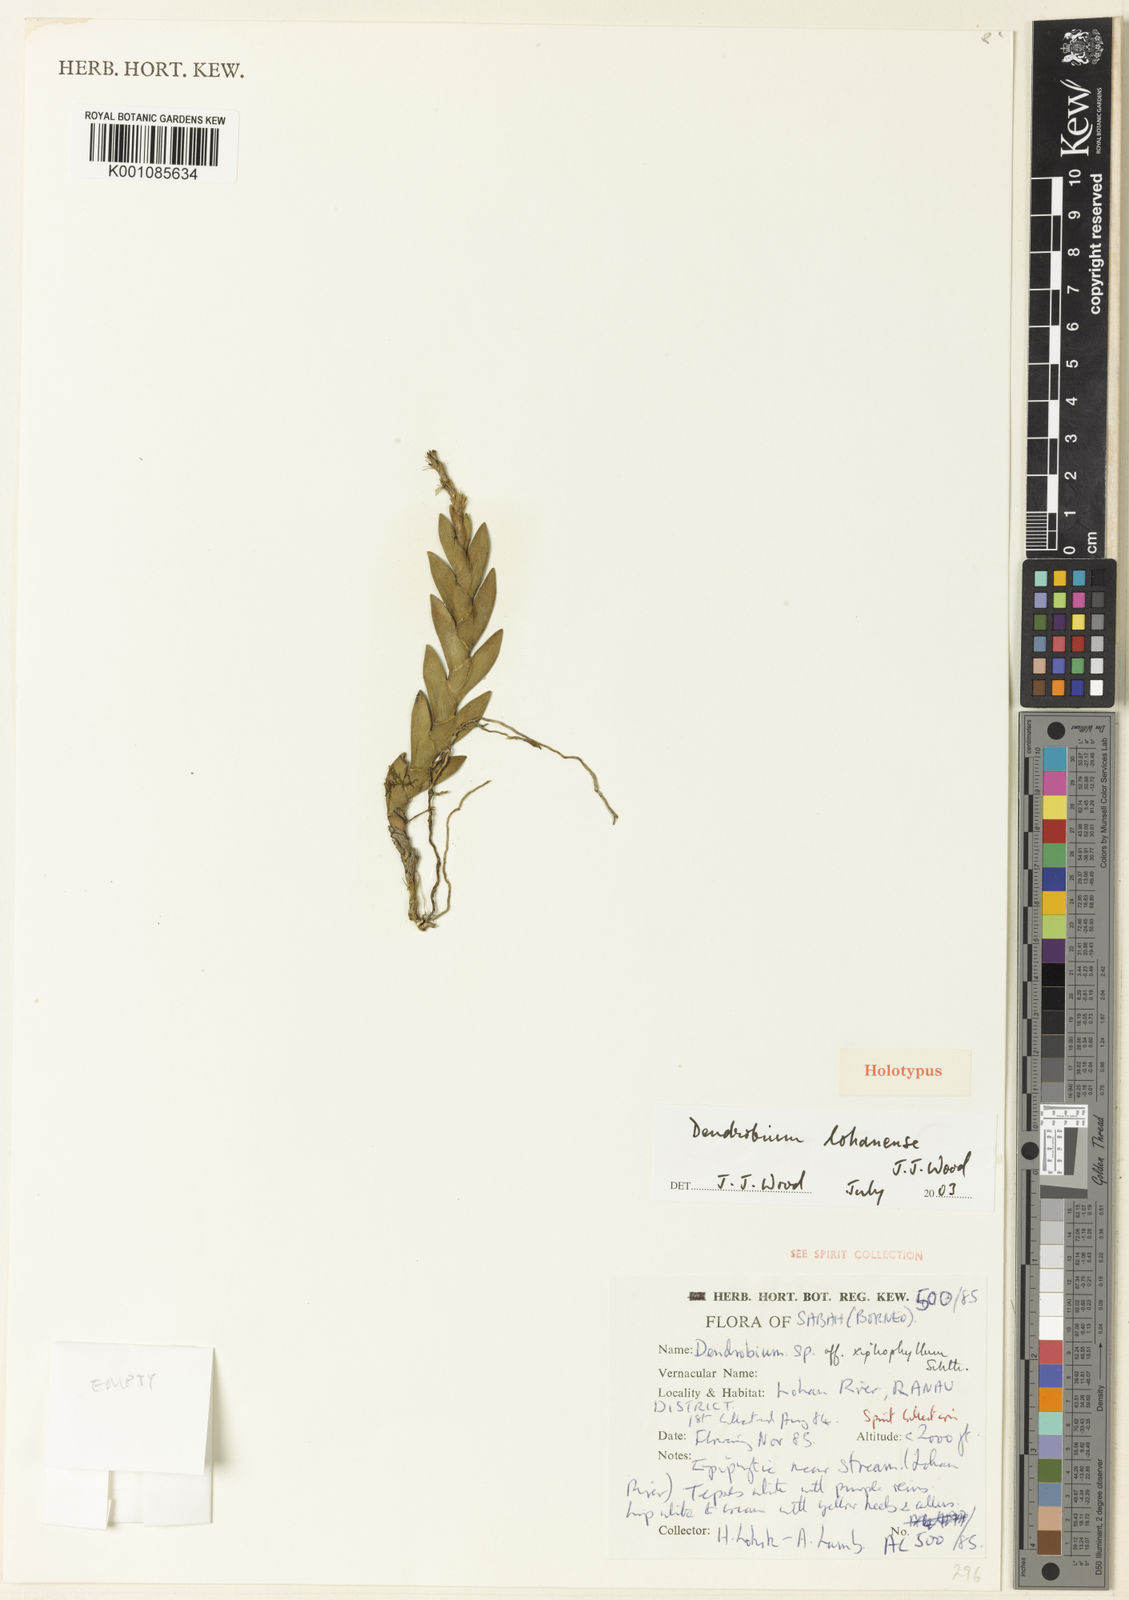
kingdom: Plantae
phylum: Tracheophyta
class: Liliopsida
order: Asparagales
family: Orchidaceae
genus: Dendrobium
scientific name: Dendrobium lohanense
